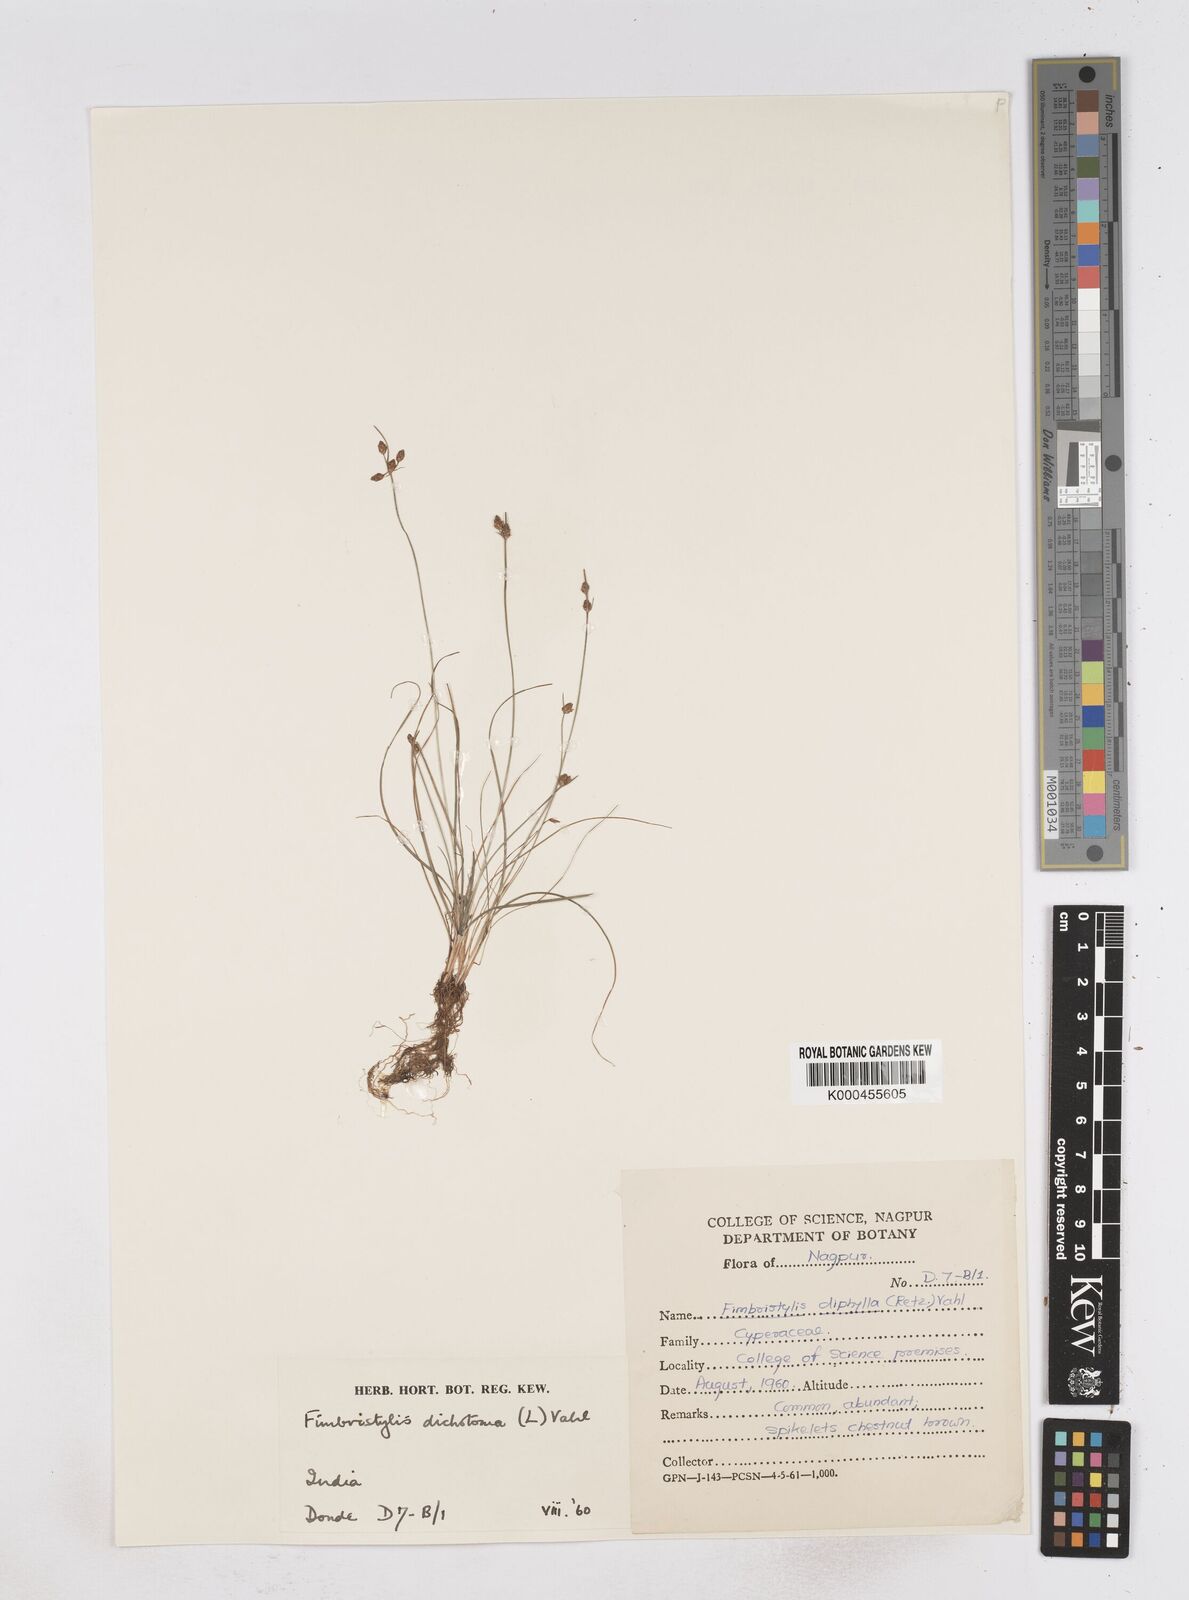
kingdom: Plantae
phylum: Tracheophyta
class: Liliopsida
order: Poales
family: Cyperaceae
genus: Fimbristylis
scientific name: Fimbristylis dichotoma
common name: Forked fimbry
